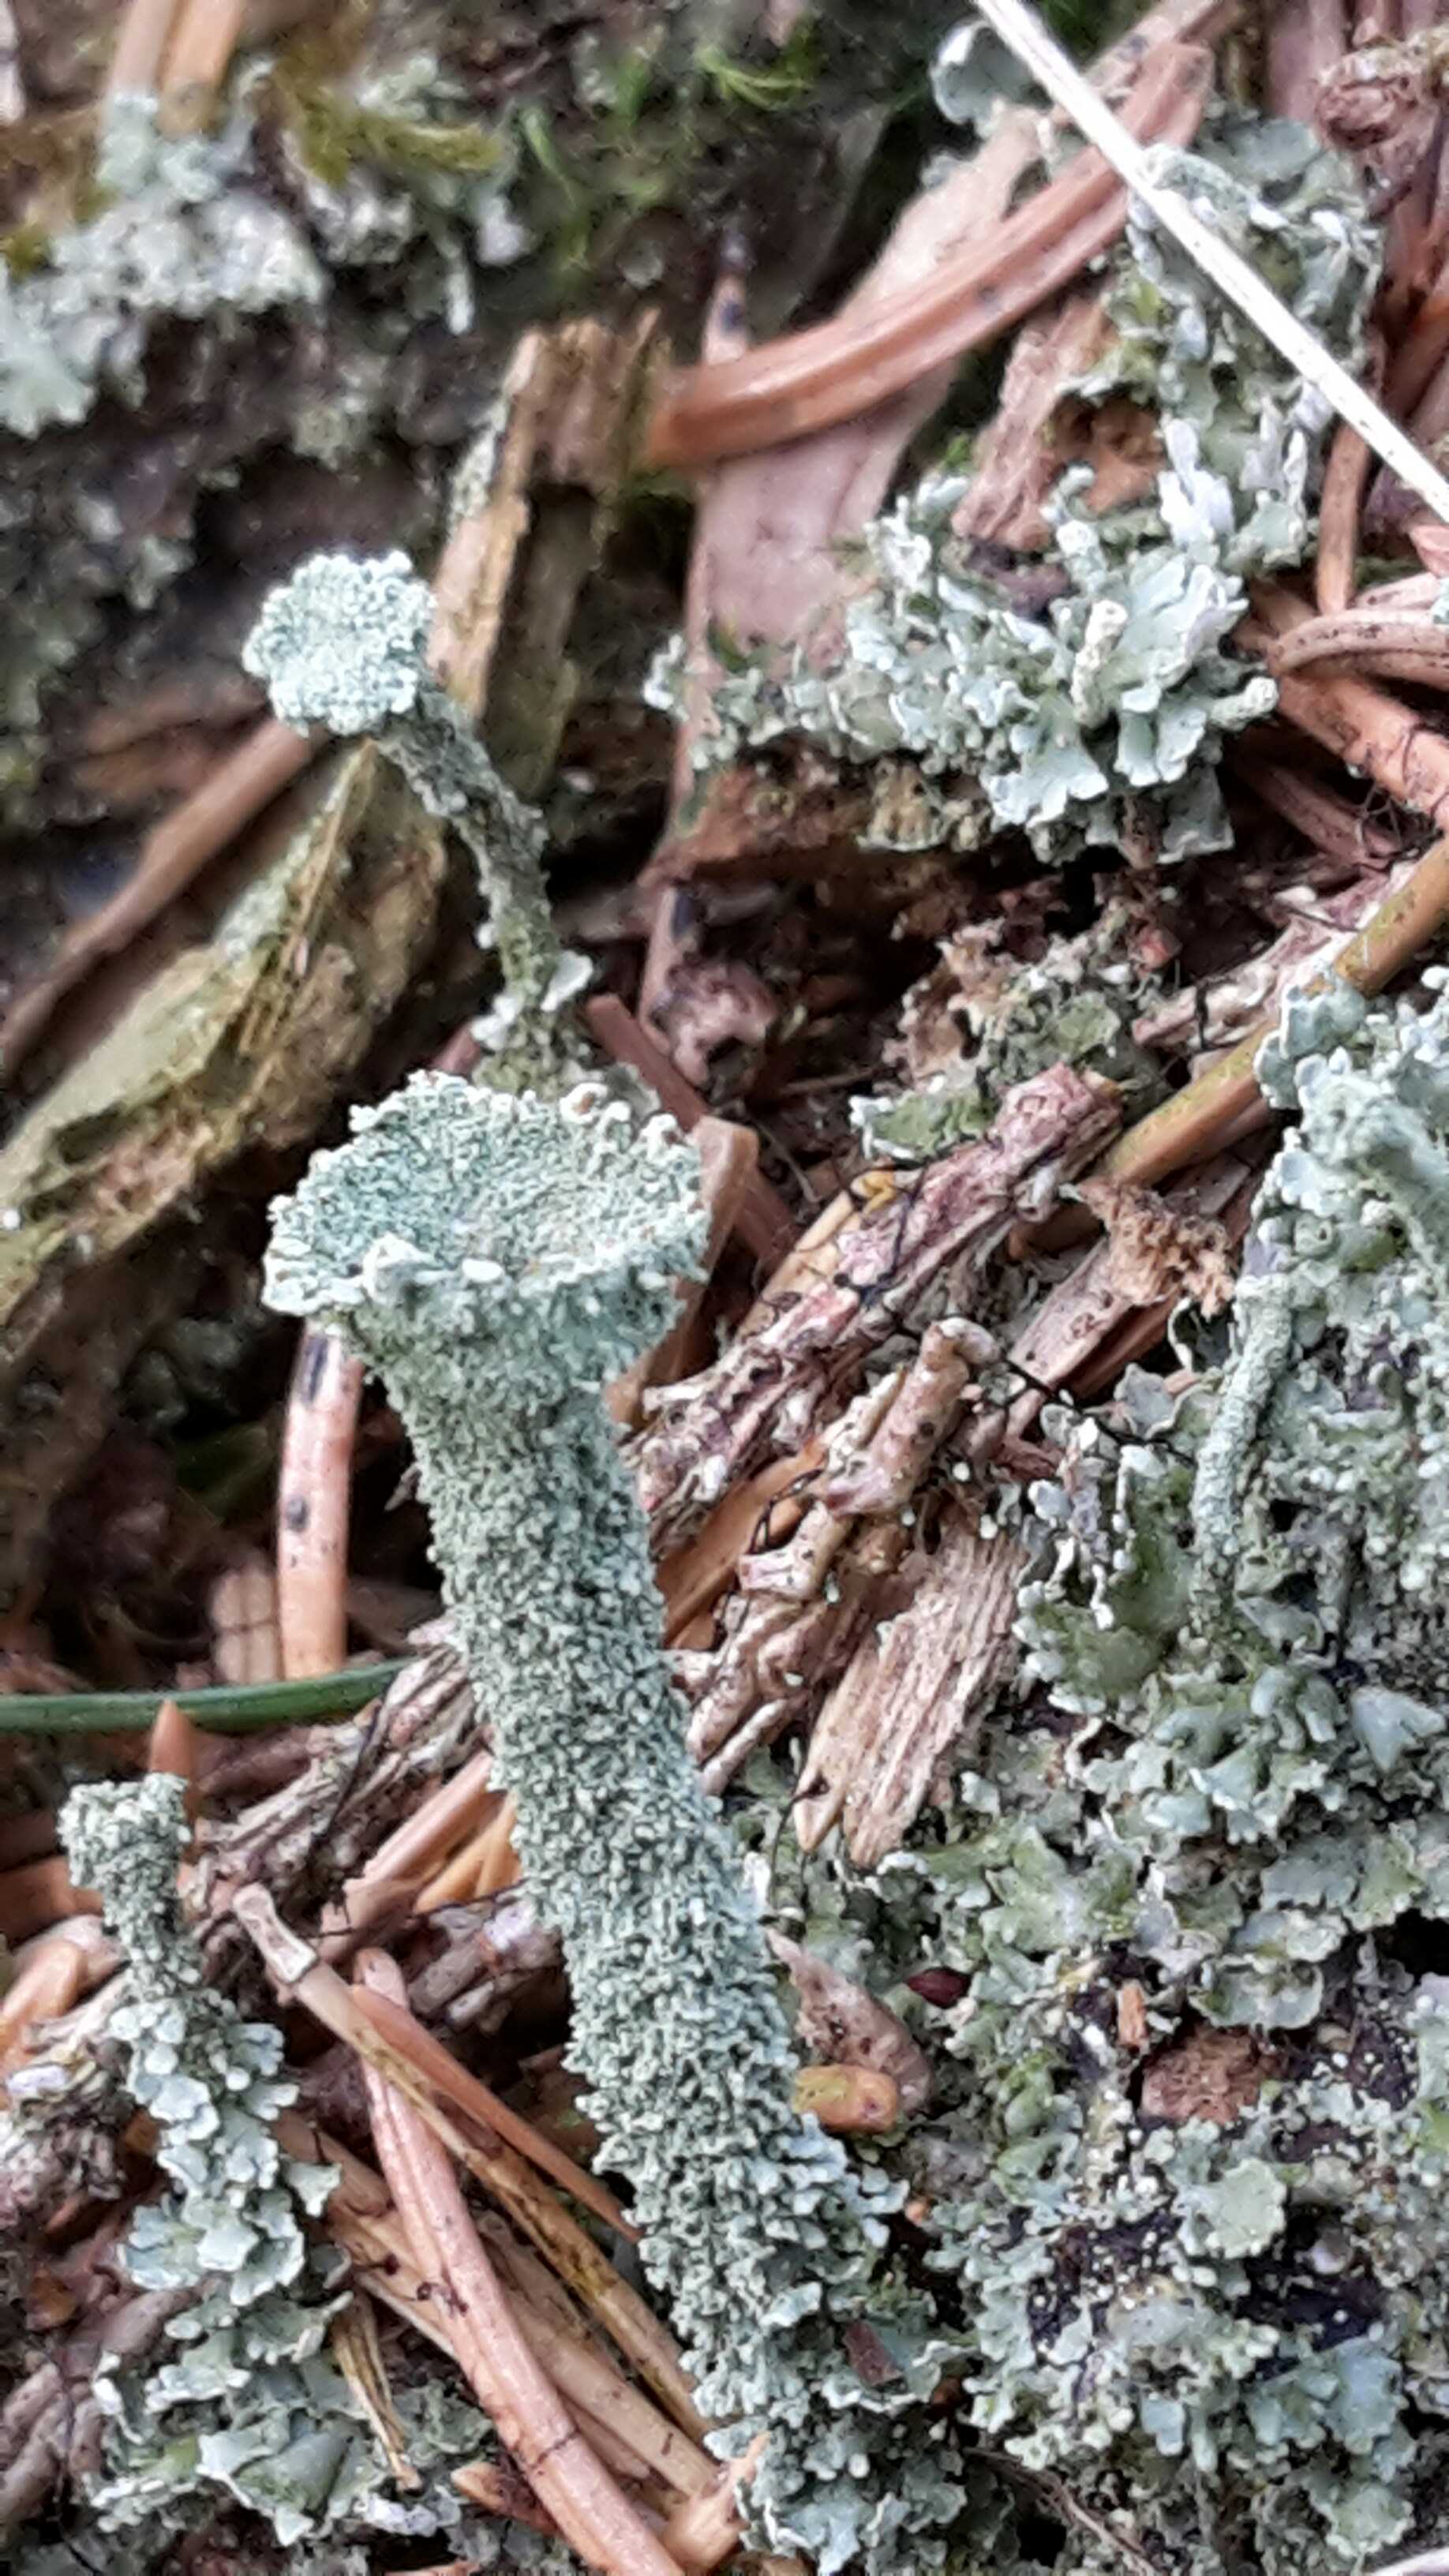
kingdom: Fungi
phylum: Ascomycota
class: Lecanoromycetes
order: Lecanorales
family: Cladoniaceae
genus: Cladonia
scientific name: Cladonia
